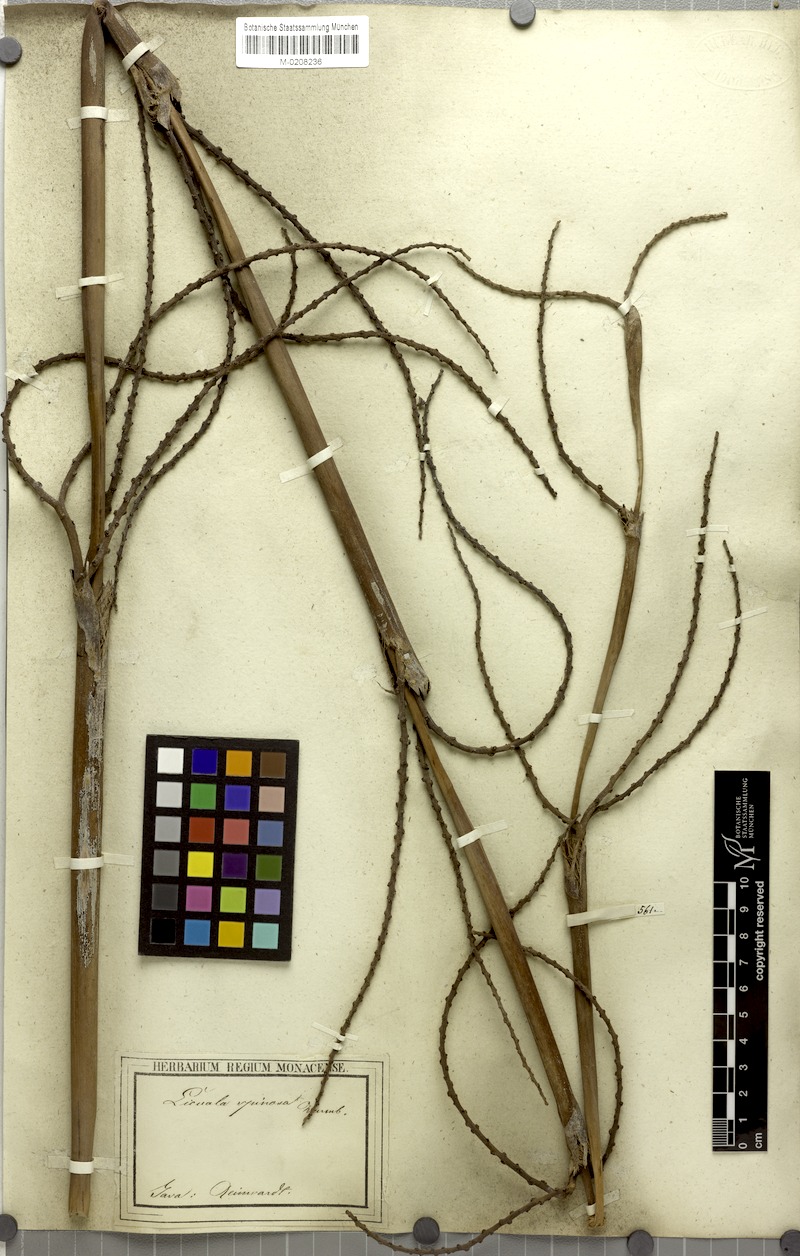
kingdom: Plantae
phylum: Tracheophyta
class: Liliopsida
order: Arecales
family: Arecaceae
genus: Licuala
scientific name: Licuala spinosa
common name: Mangrove fan palm
